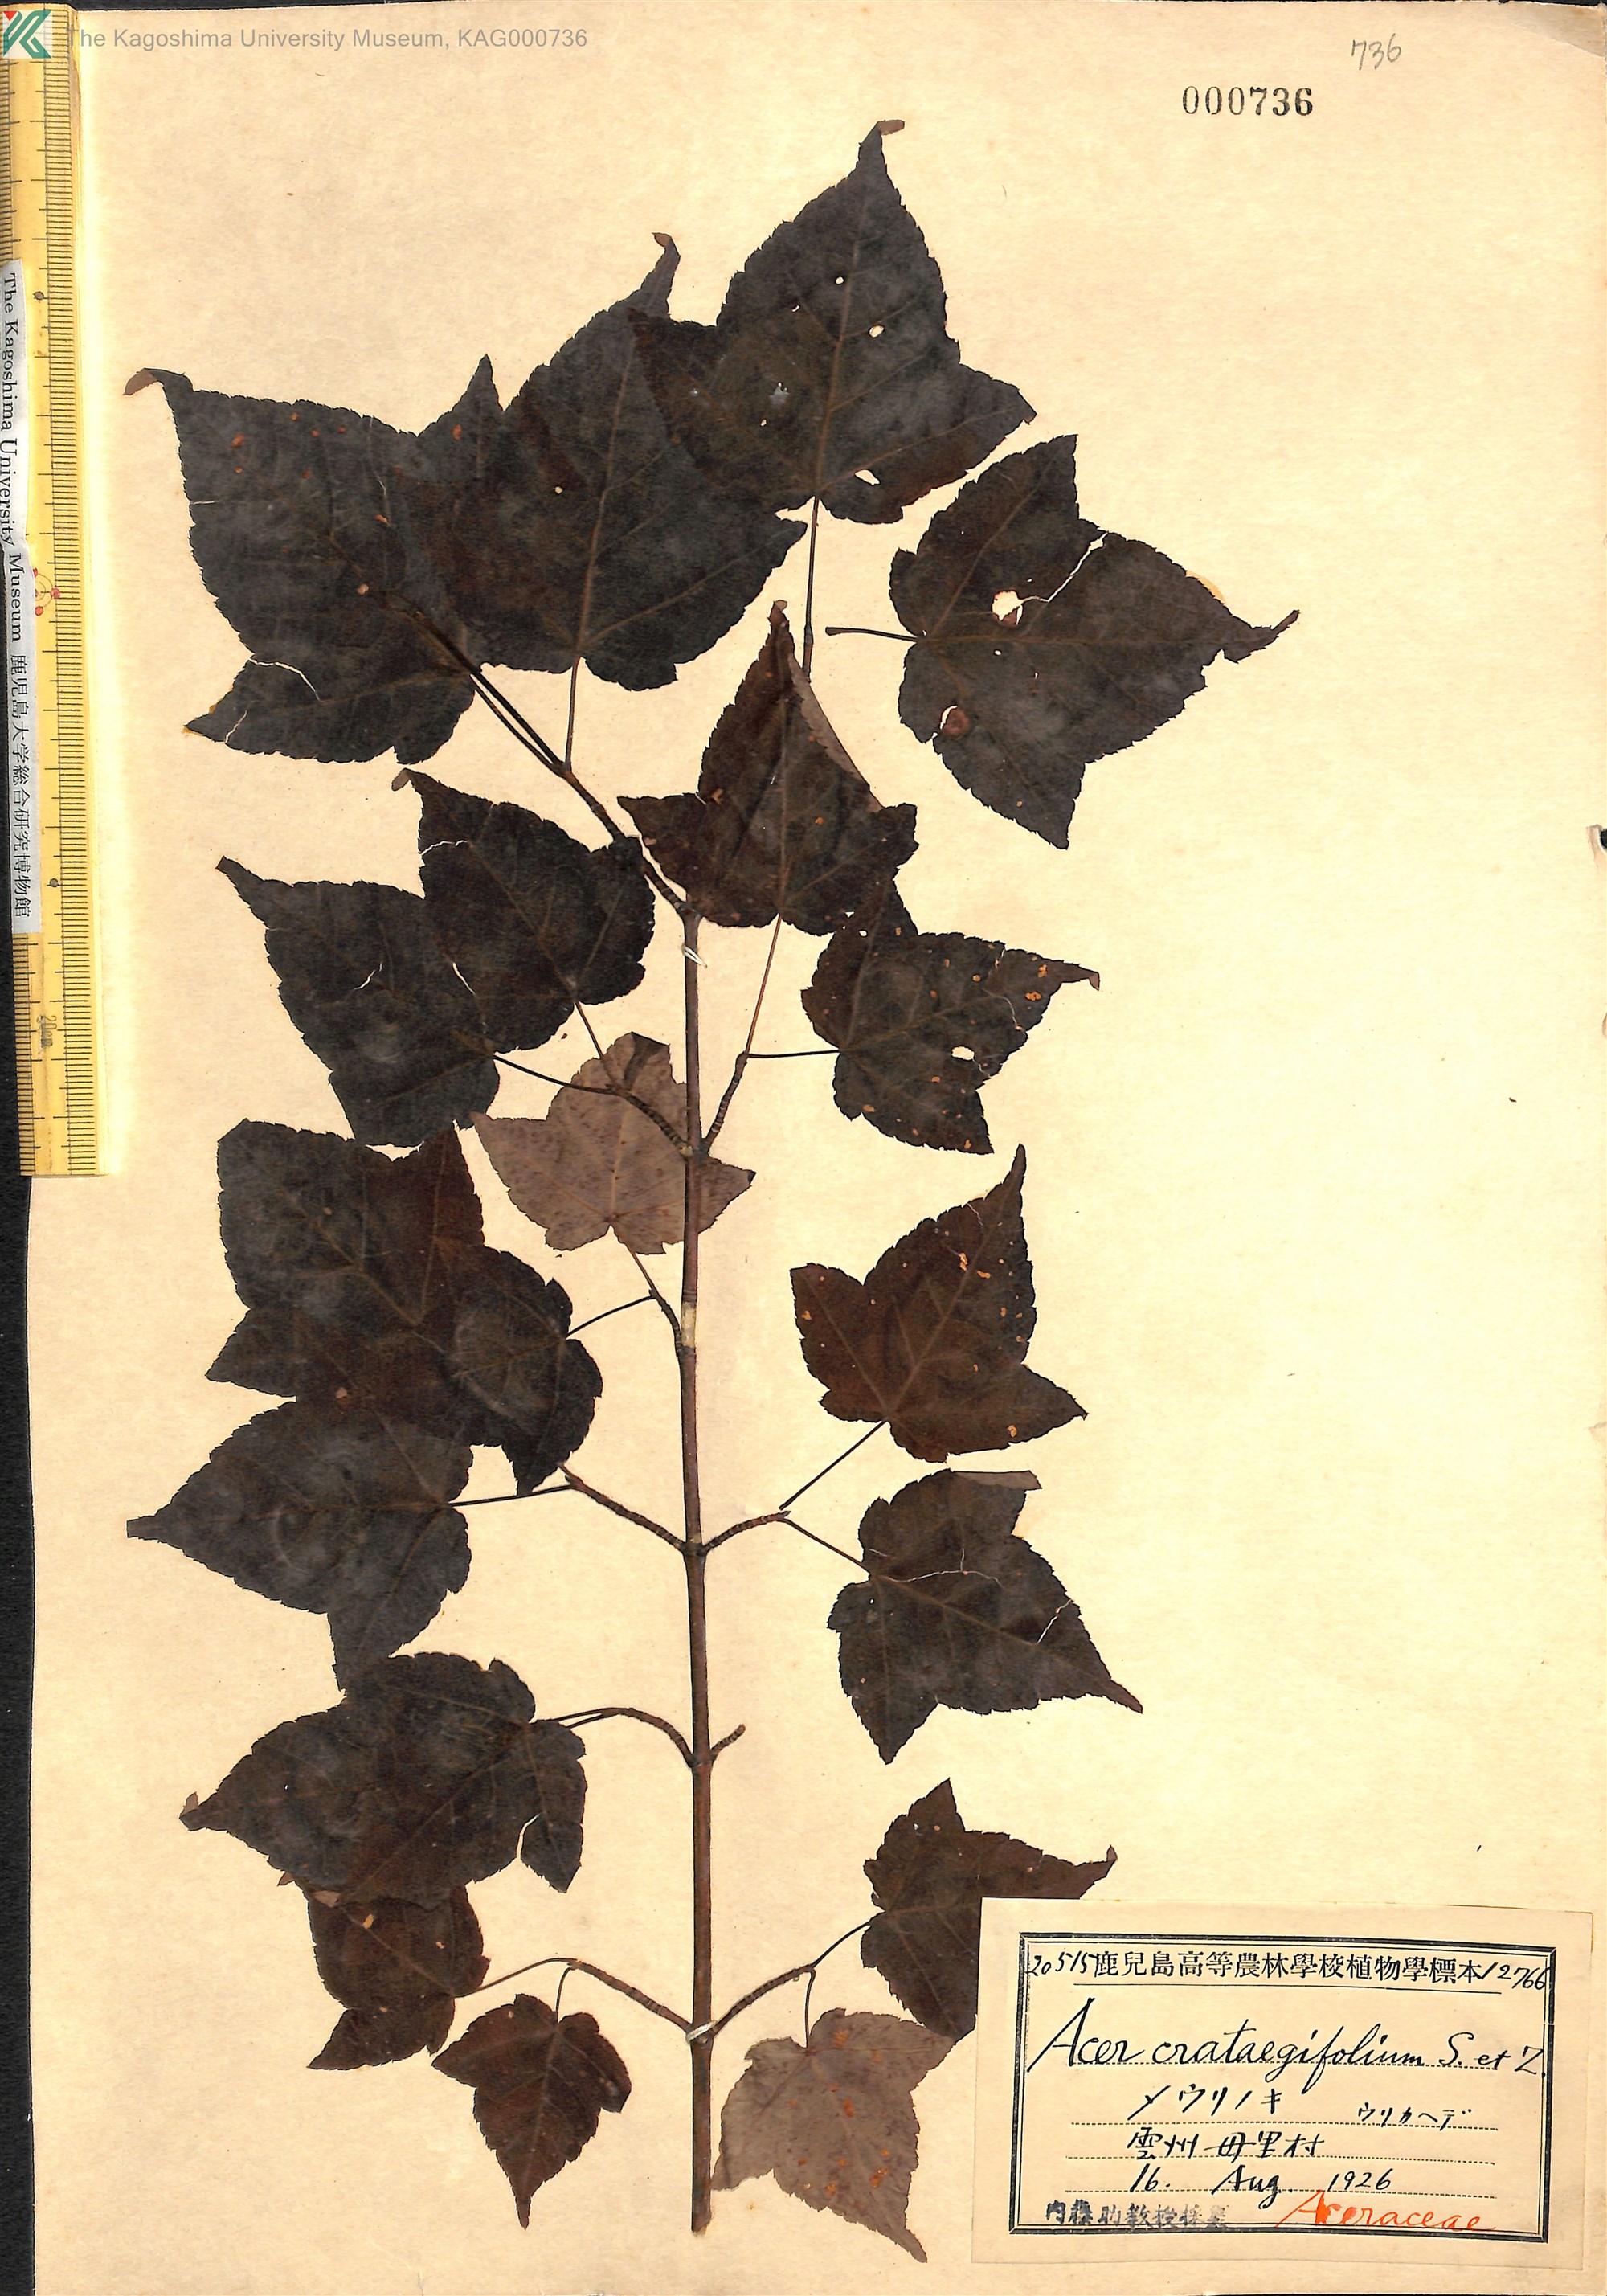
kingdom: Plantae
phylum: Tracheophyta
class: Magnoliopsida
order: Sapindales
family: Sapindaceae
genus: Acer
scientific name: Acer crataegifolium
